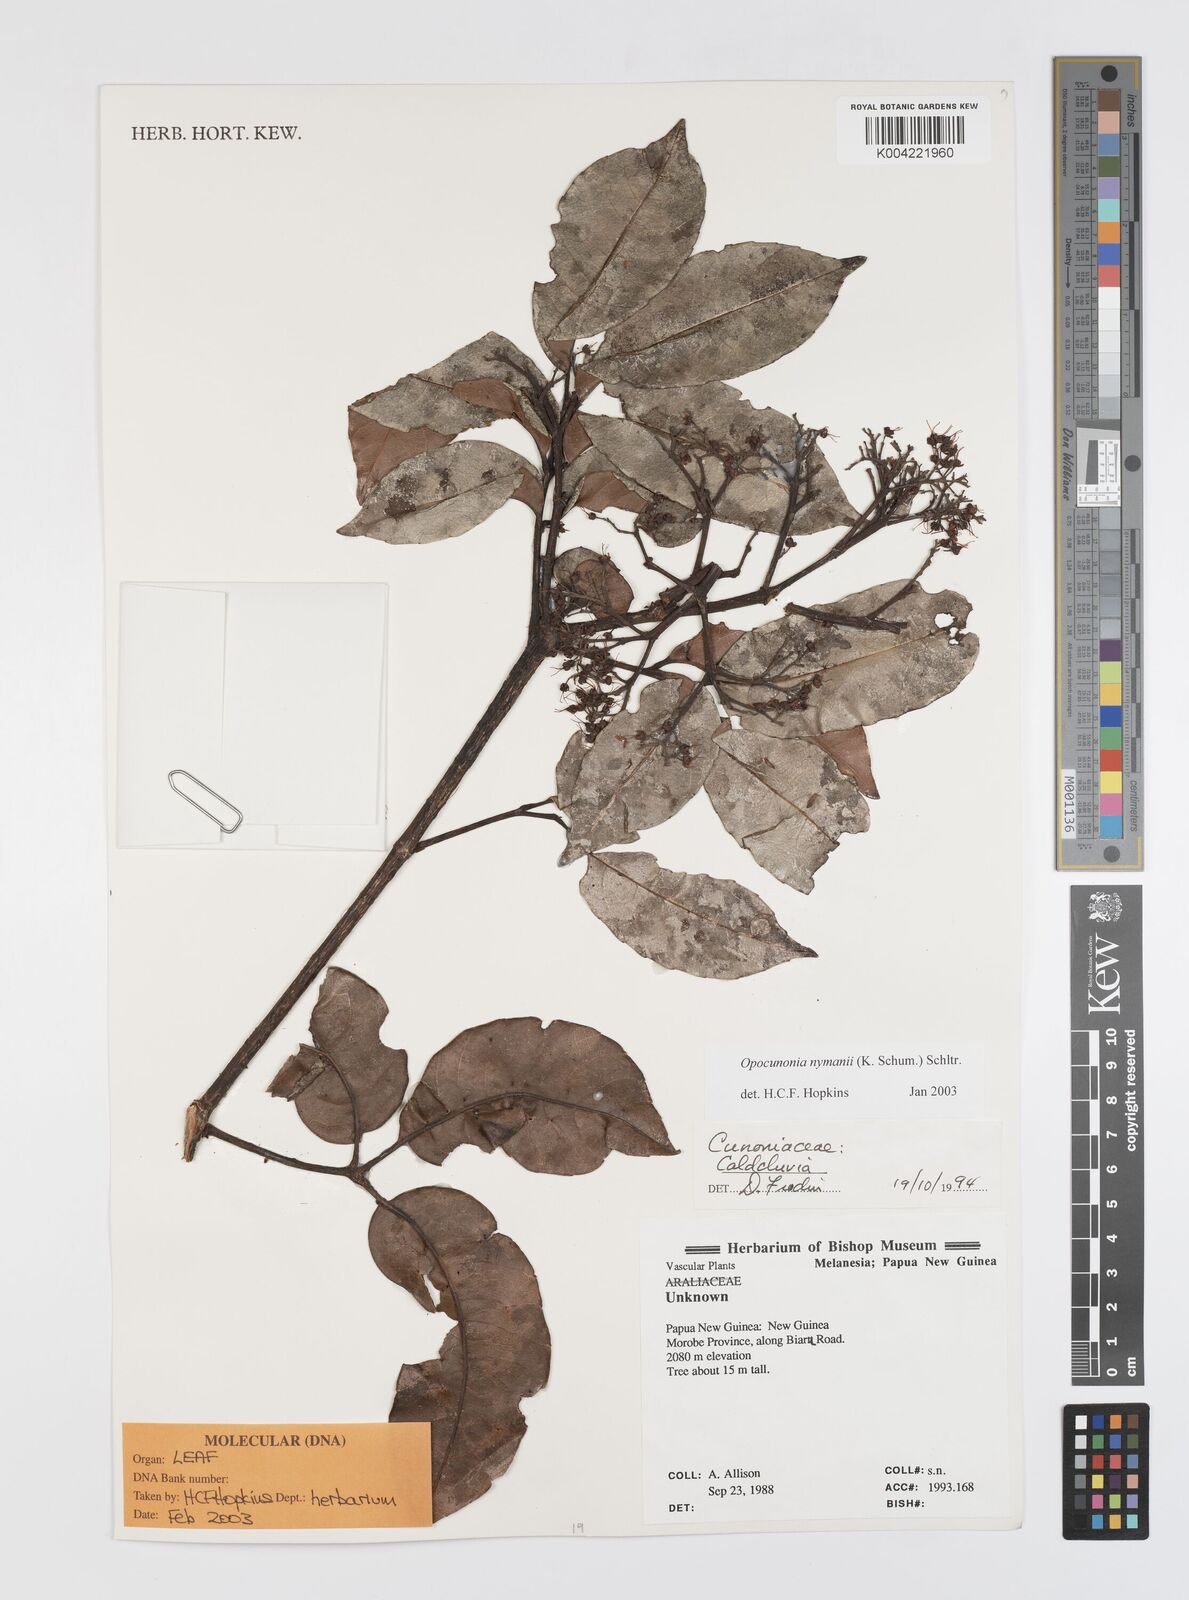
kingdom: Plantae
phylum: Tracheophyta
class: Magnoliopsida
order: Oxalidales
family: Cunoniaceae
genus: Opocunonia
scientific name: Opocunonia nymanii
